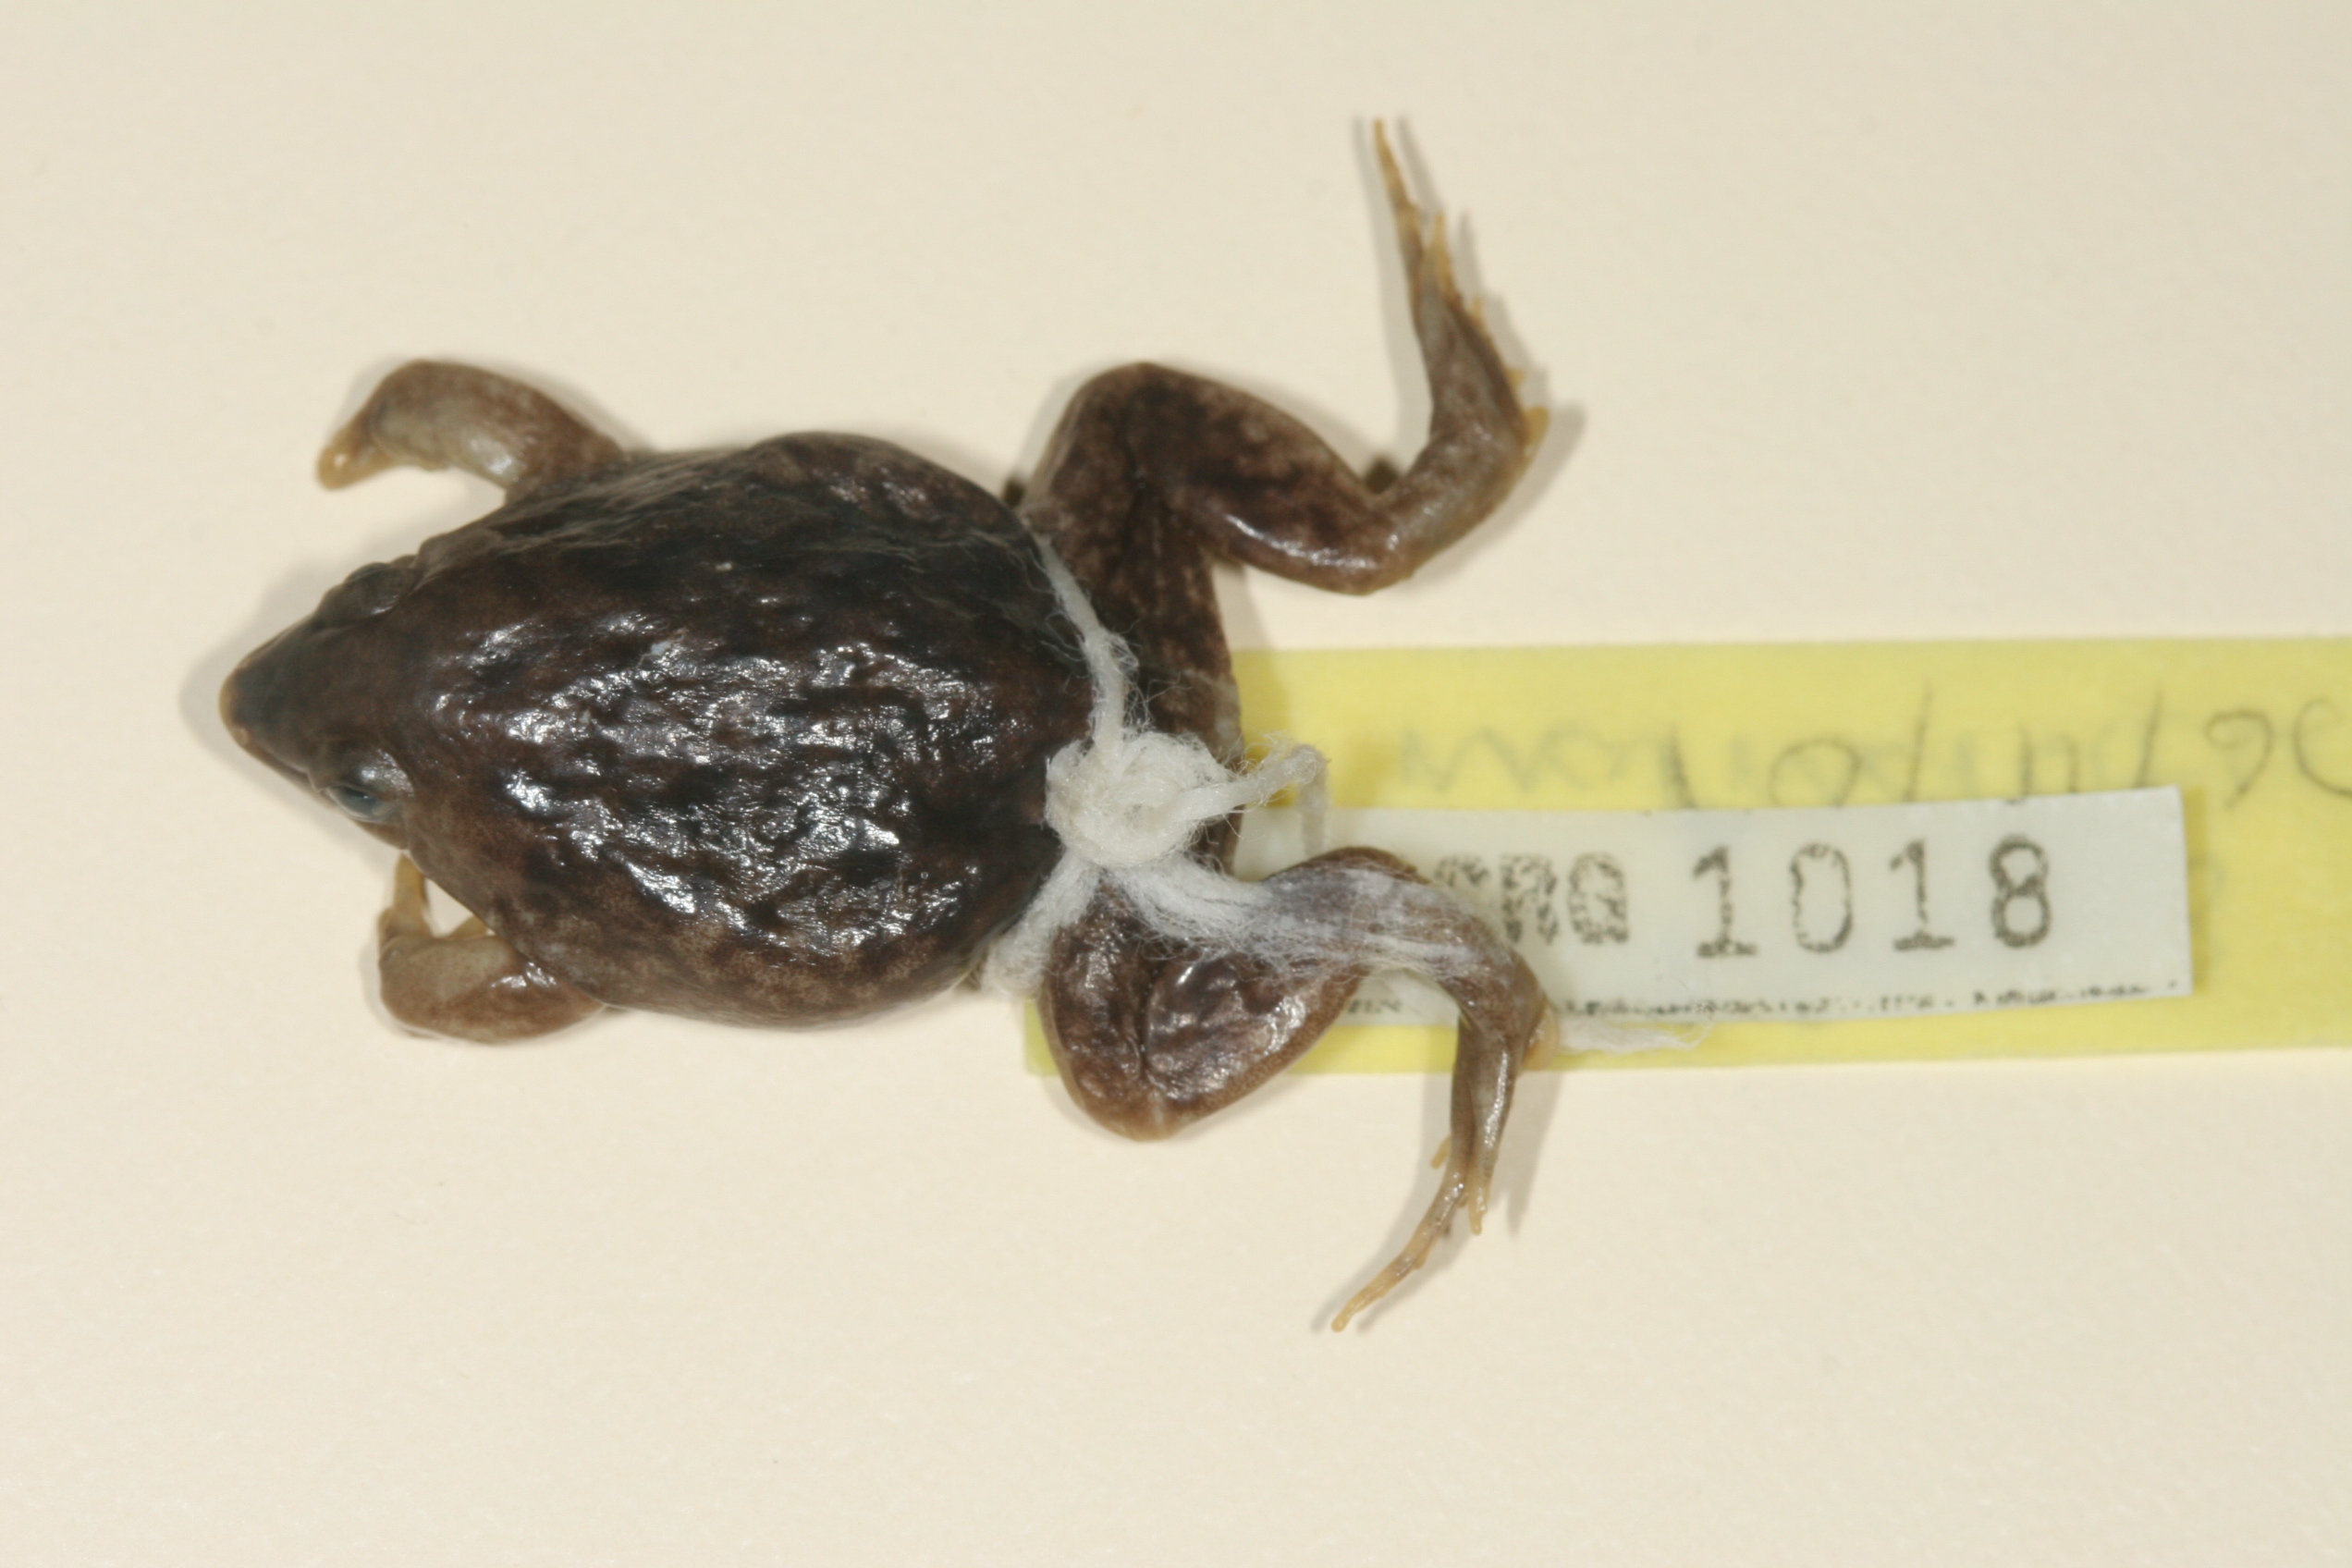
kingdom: Animalia
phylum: Chordata
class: Amphibia
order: Anura
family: Hemisotidae
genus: Hemisus
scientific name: Hemisus marmoratus
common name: Mottled shovel-nosed frog
